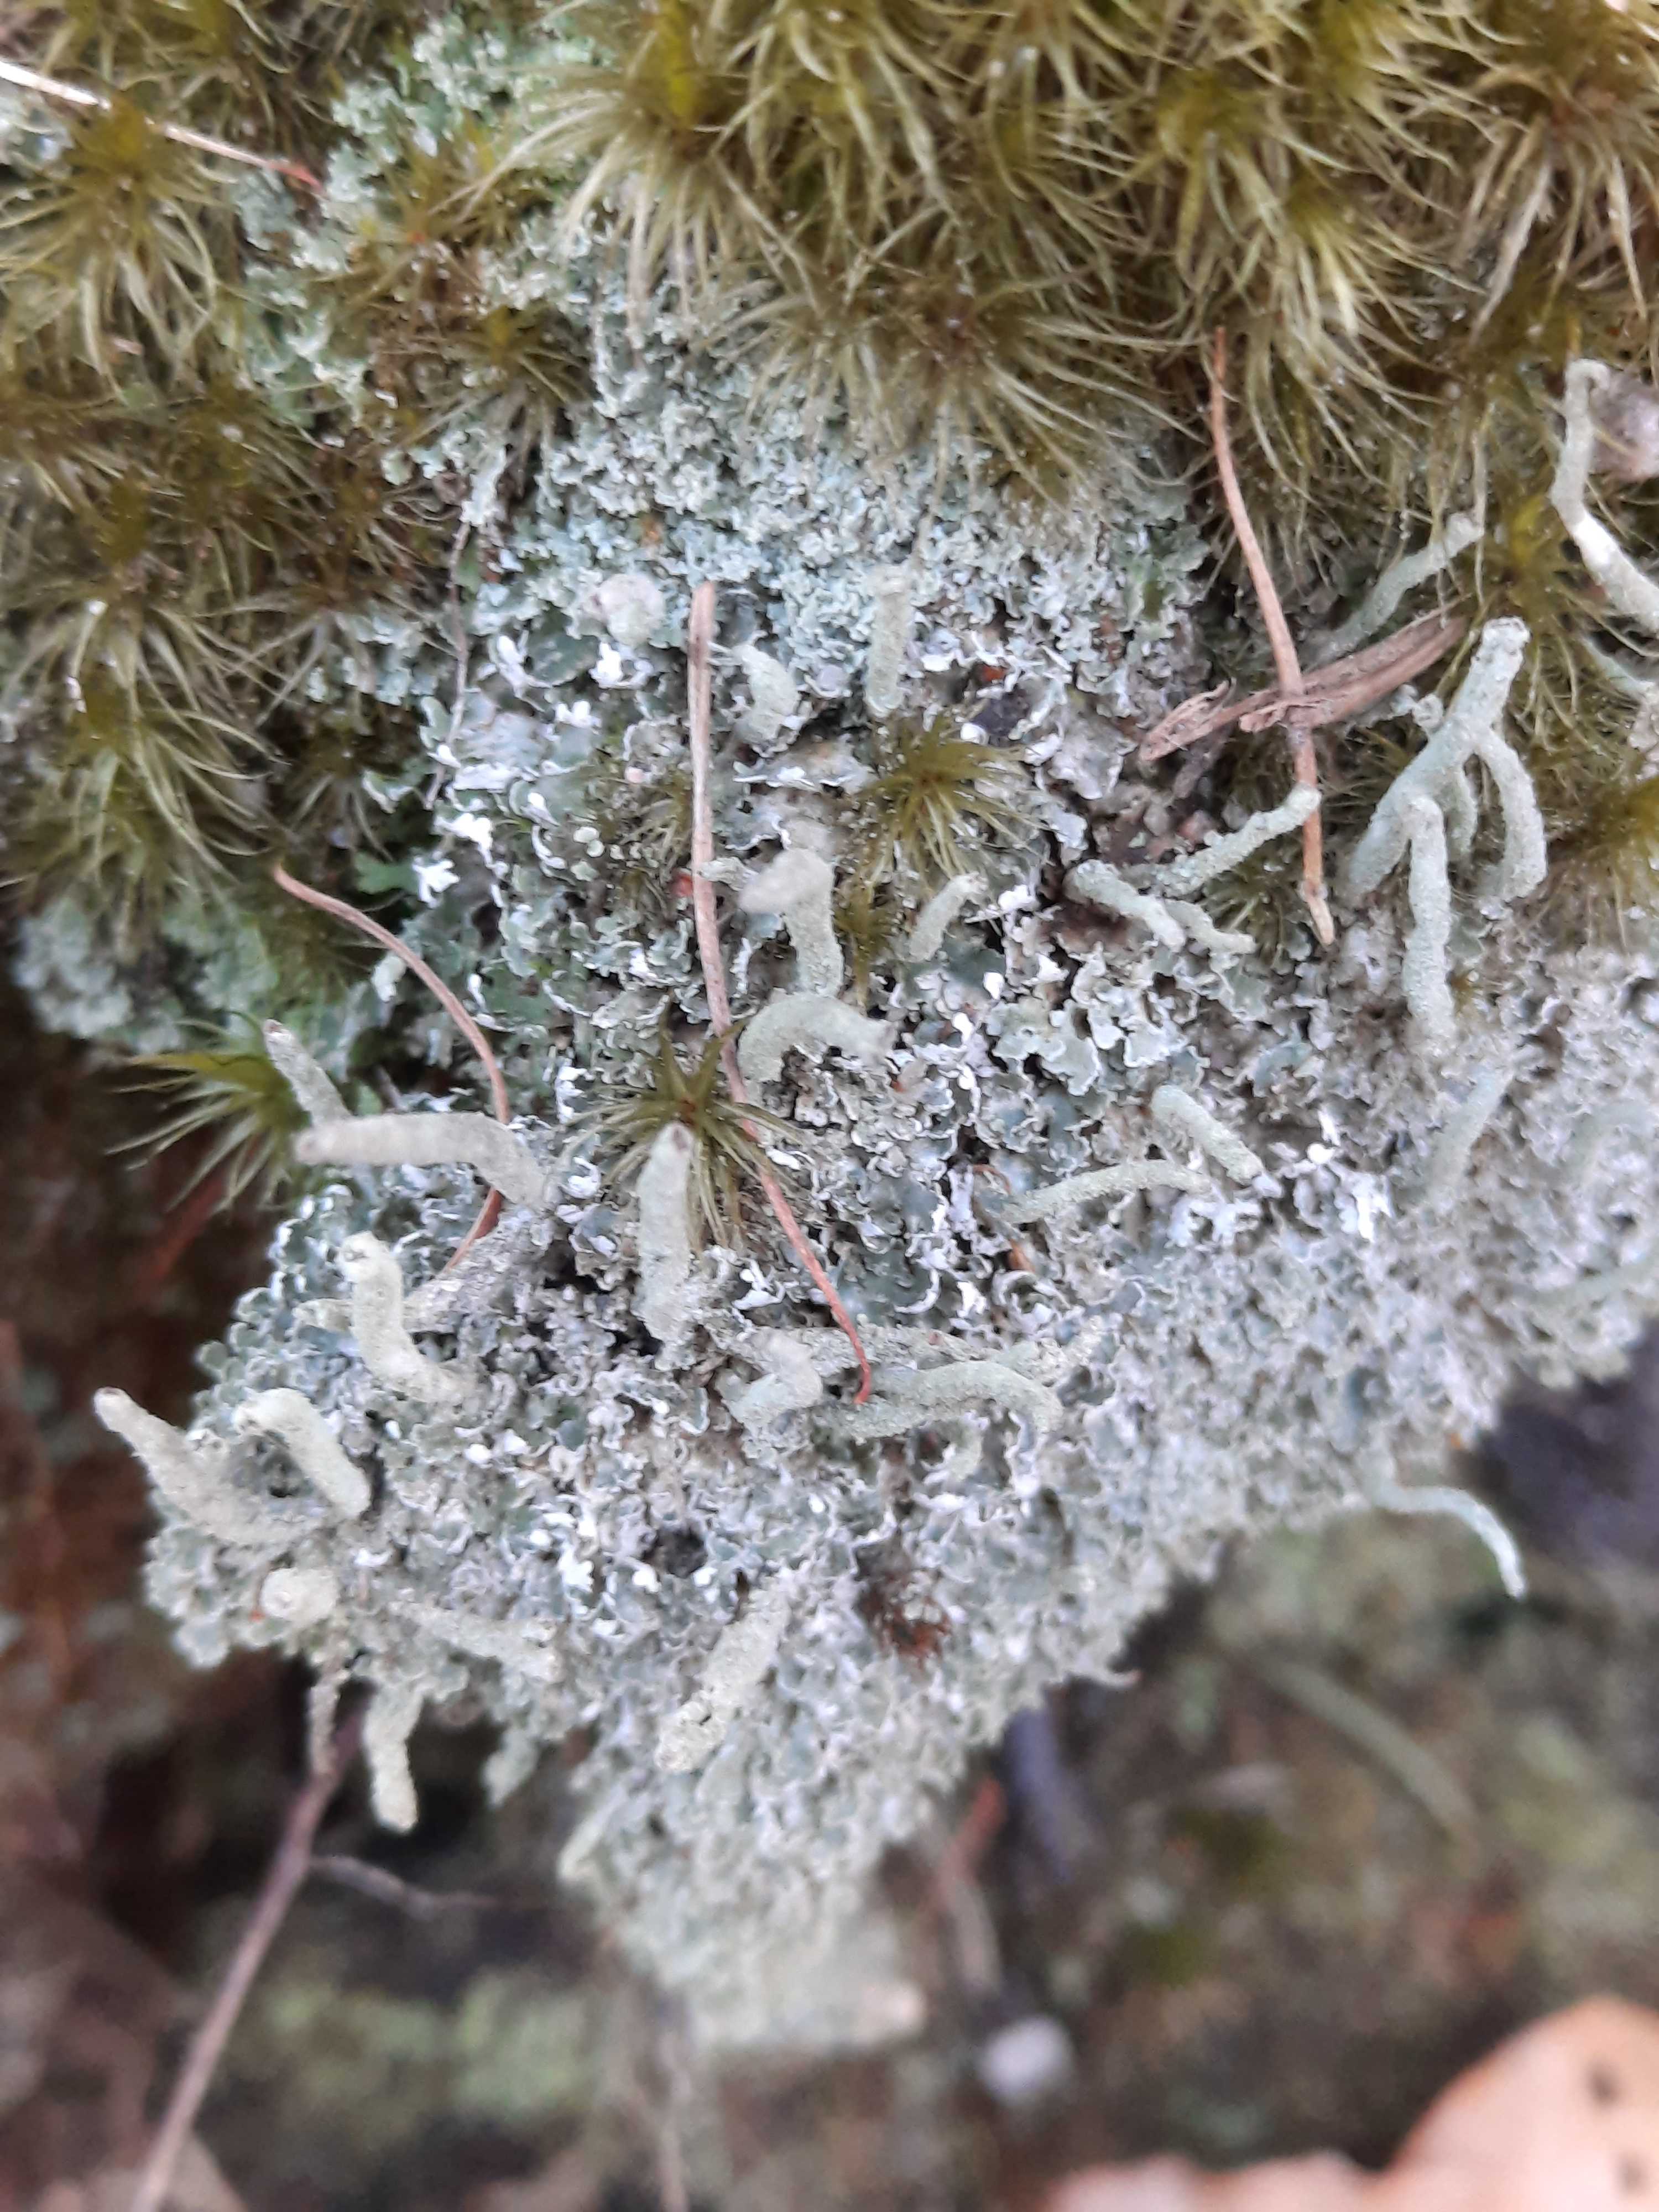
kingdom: Fungi
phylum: Ascomycota
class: Lecanoromycetes
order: Lecanorales
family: Cladoniaceae
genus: Cladonia
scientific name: Cladonia ochrochlora
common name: stød-bægerlav
